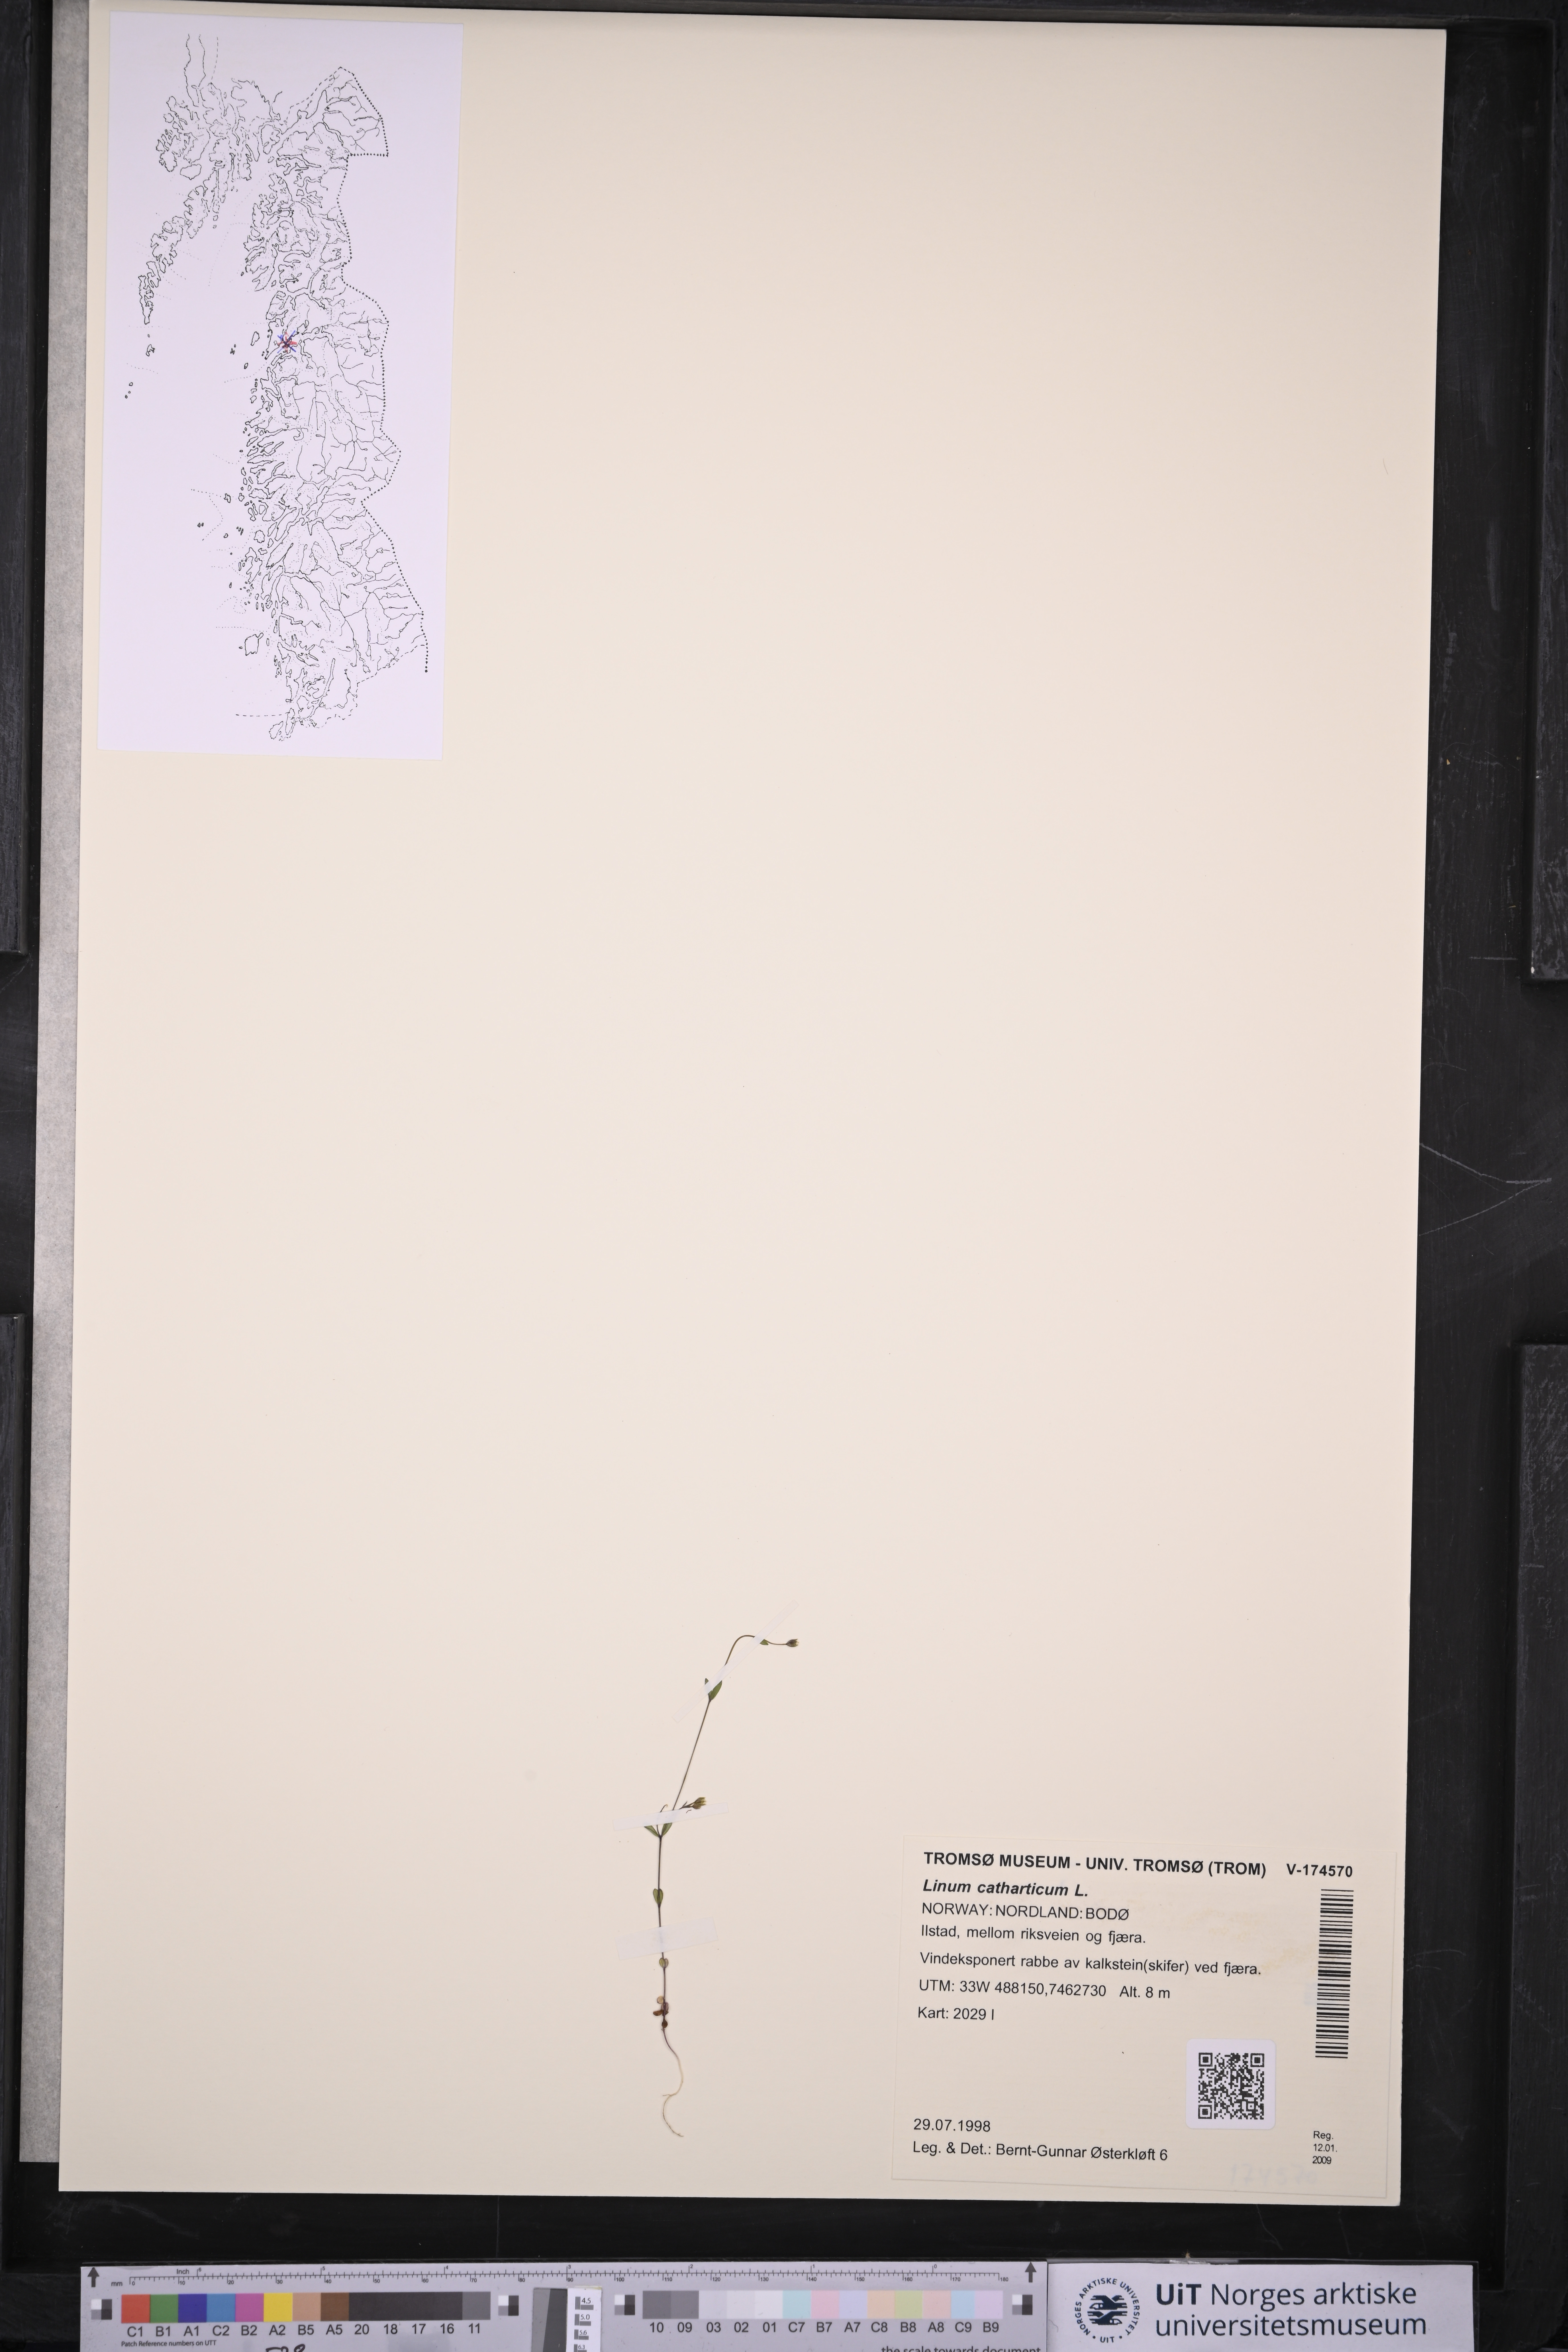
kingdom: Plantae
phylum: Tracheophyta
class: Magnoliopsida
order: Malpighiales
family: Linaceae
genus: Linum
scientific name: Linum catharticum
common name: Fairy flax
